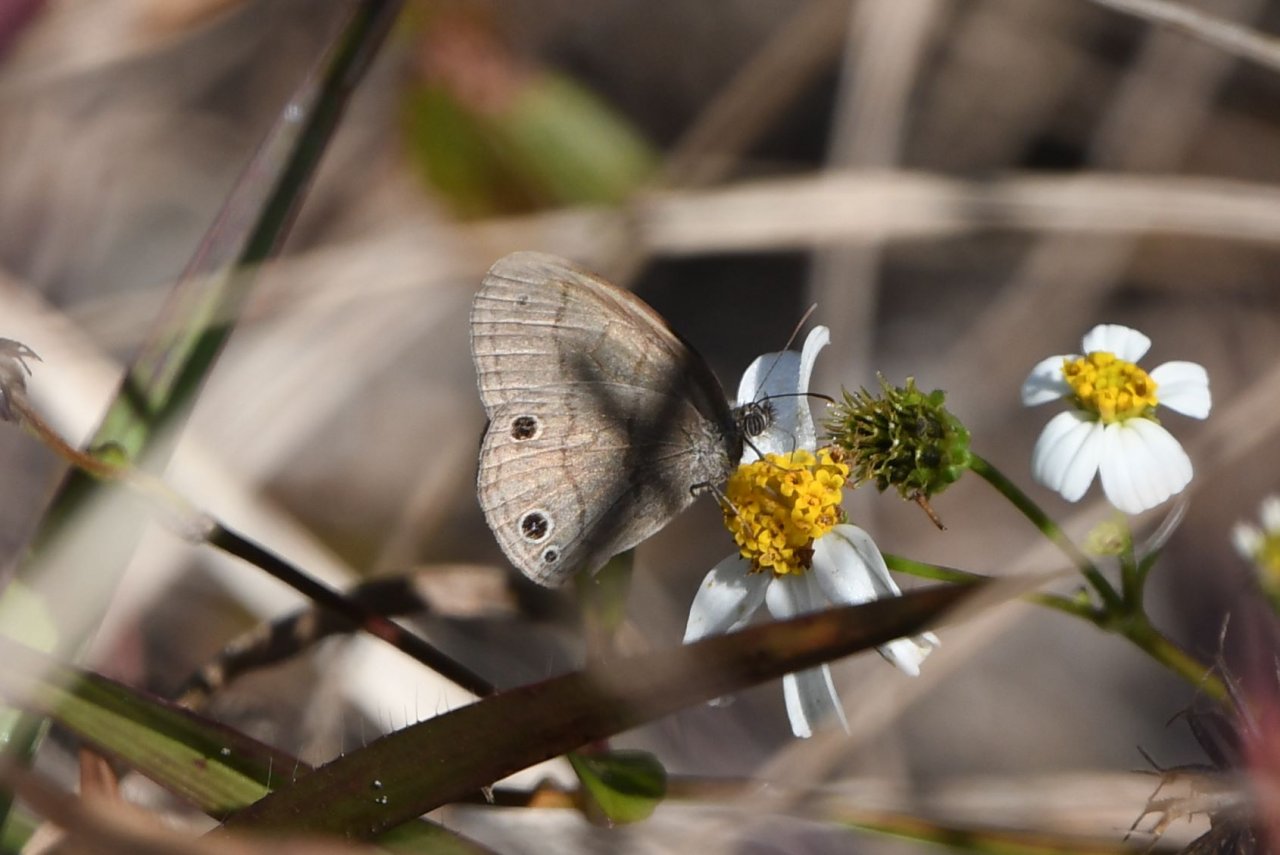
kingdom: Animalia
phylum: Arthropoda
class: Insecta
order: Lepidoptera
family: Nymphalidae
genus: Hermeuptychia
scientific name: Hermeuptychia hermes
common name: Carolina Satyr
